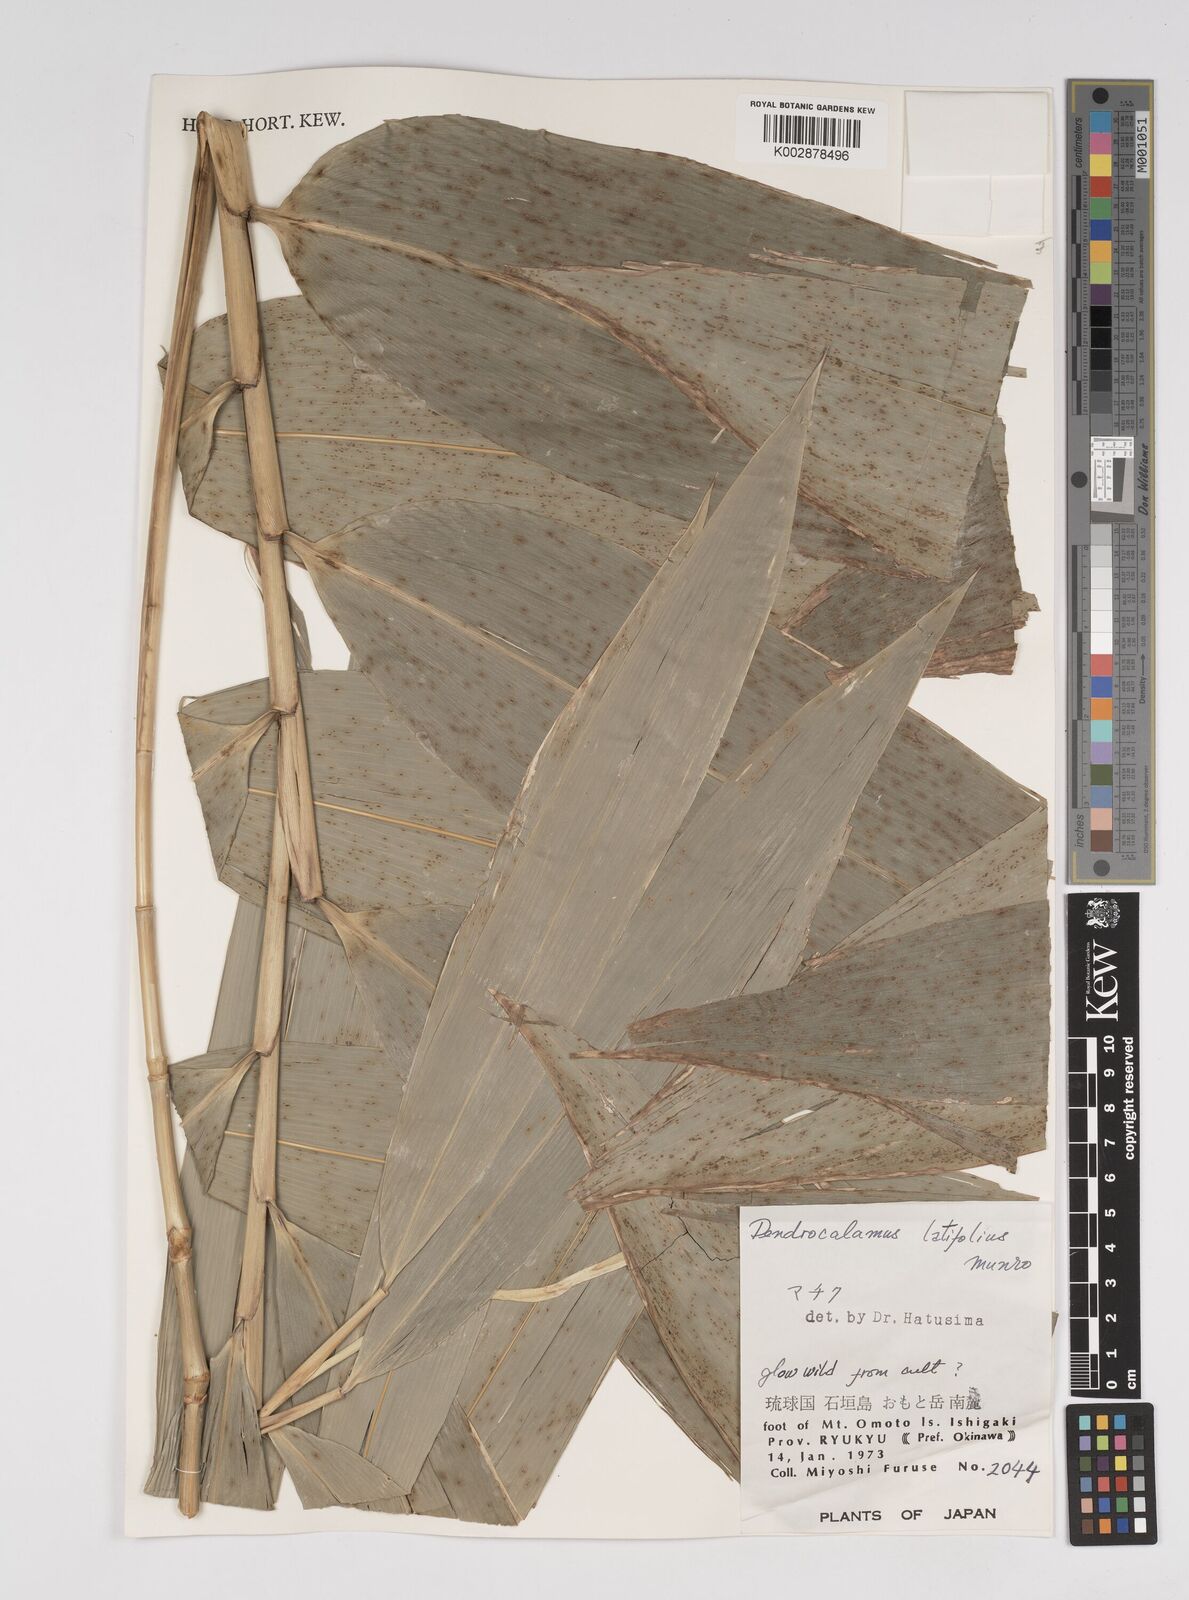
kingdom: Plantae
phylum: Tracheophyta
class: Liliopsida
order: Poales
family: Poaceae
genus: Dendrocalamus
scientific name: Dendrocalamus latiflorus
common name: Giant bamboo
